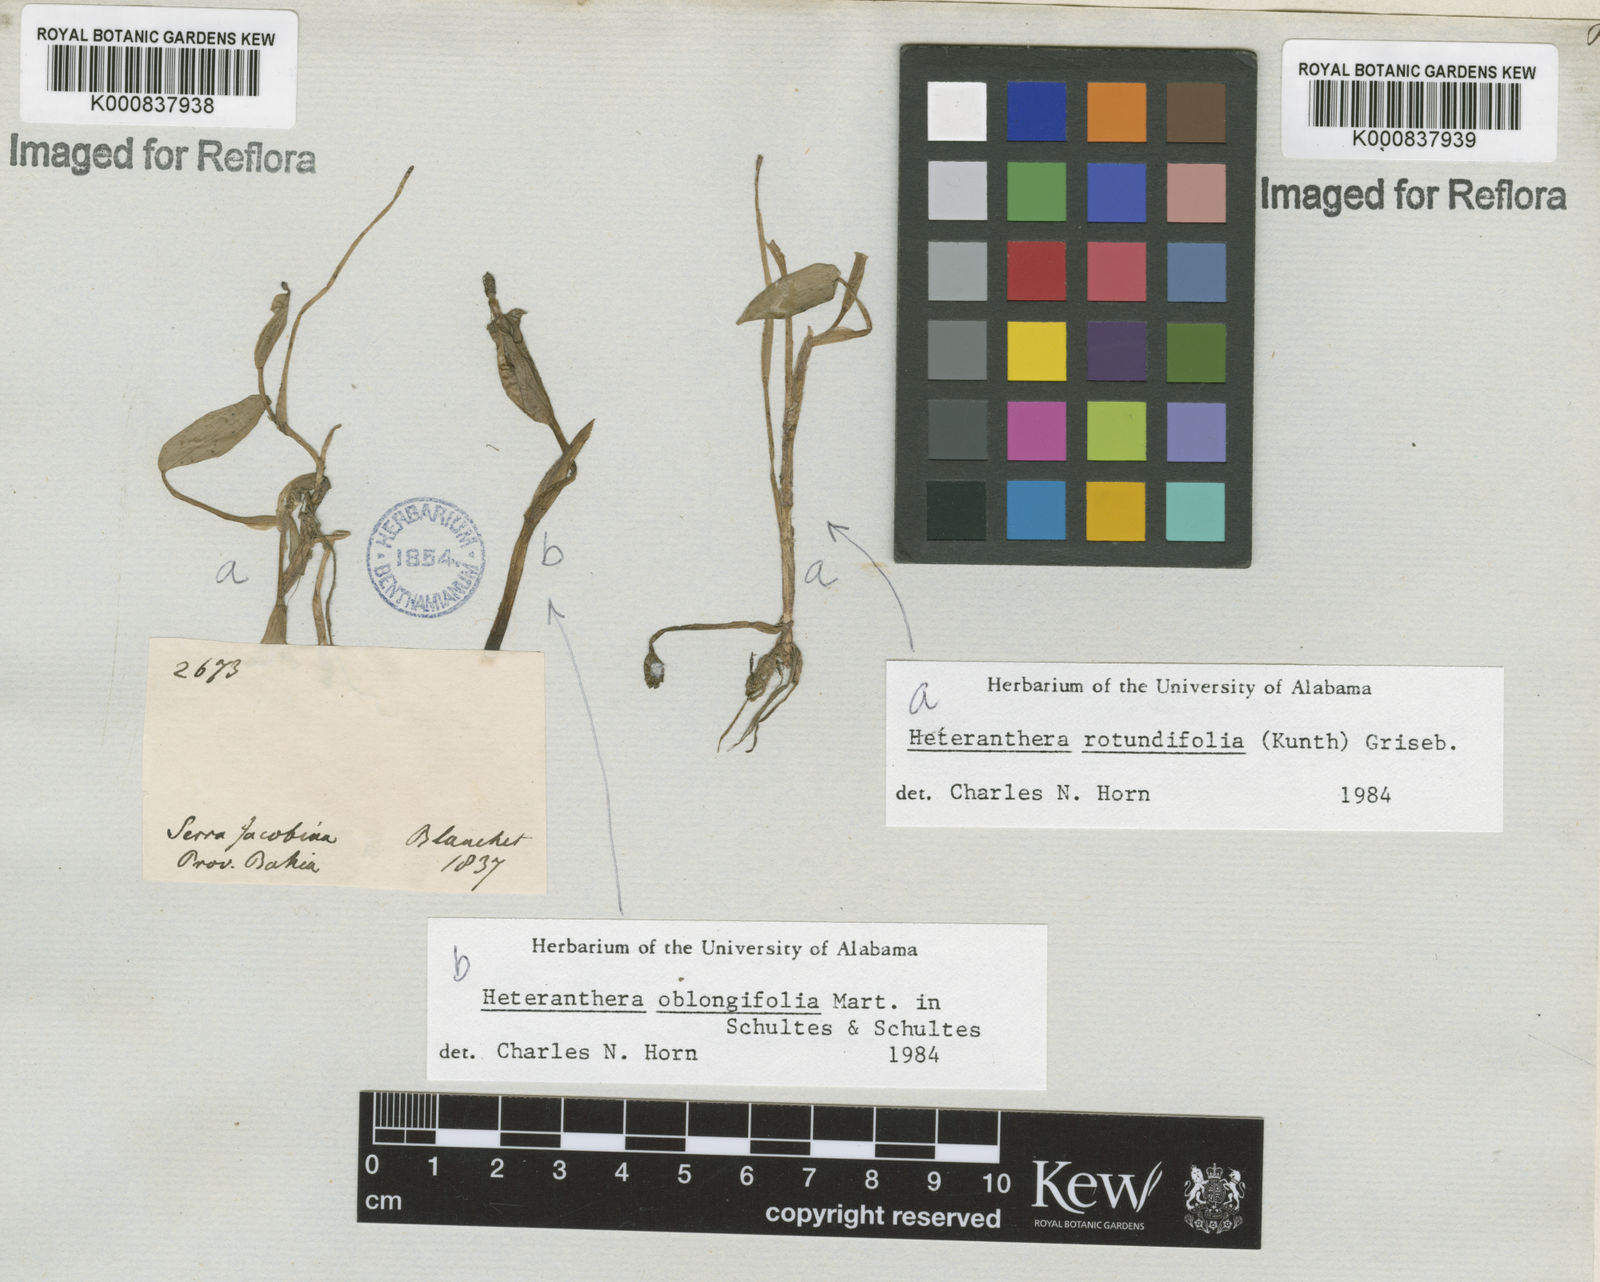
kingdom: Plantae
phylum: Tracheophyta
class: Liliopsida
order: Commelinales
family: Pontederiaceae
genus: Heteranthera
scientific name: Heteranthera rotundifolia
